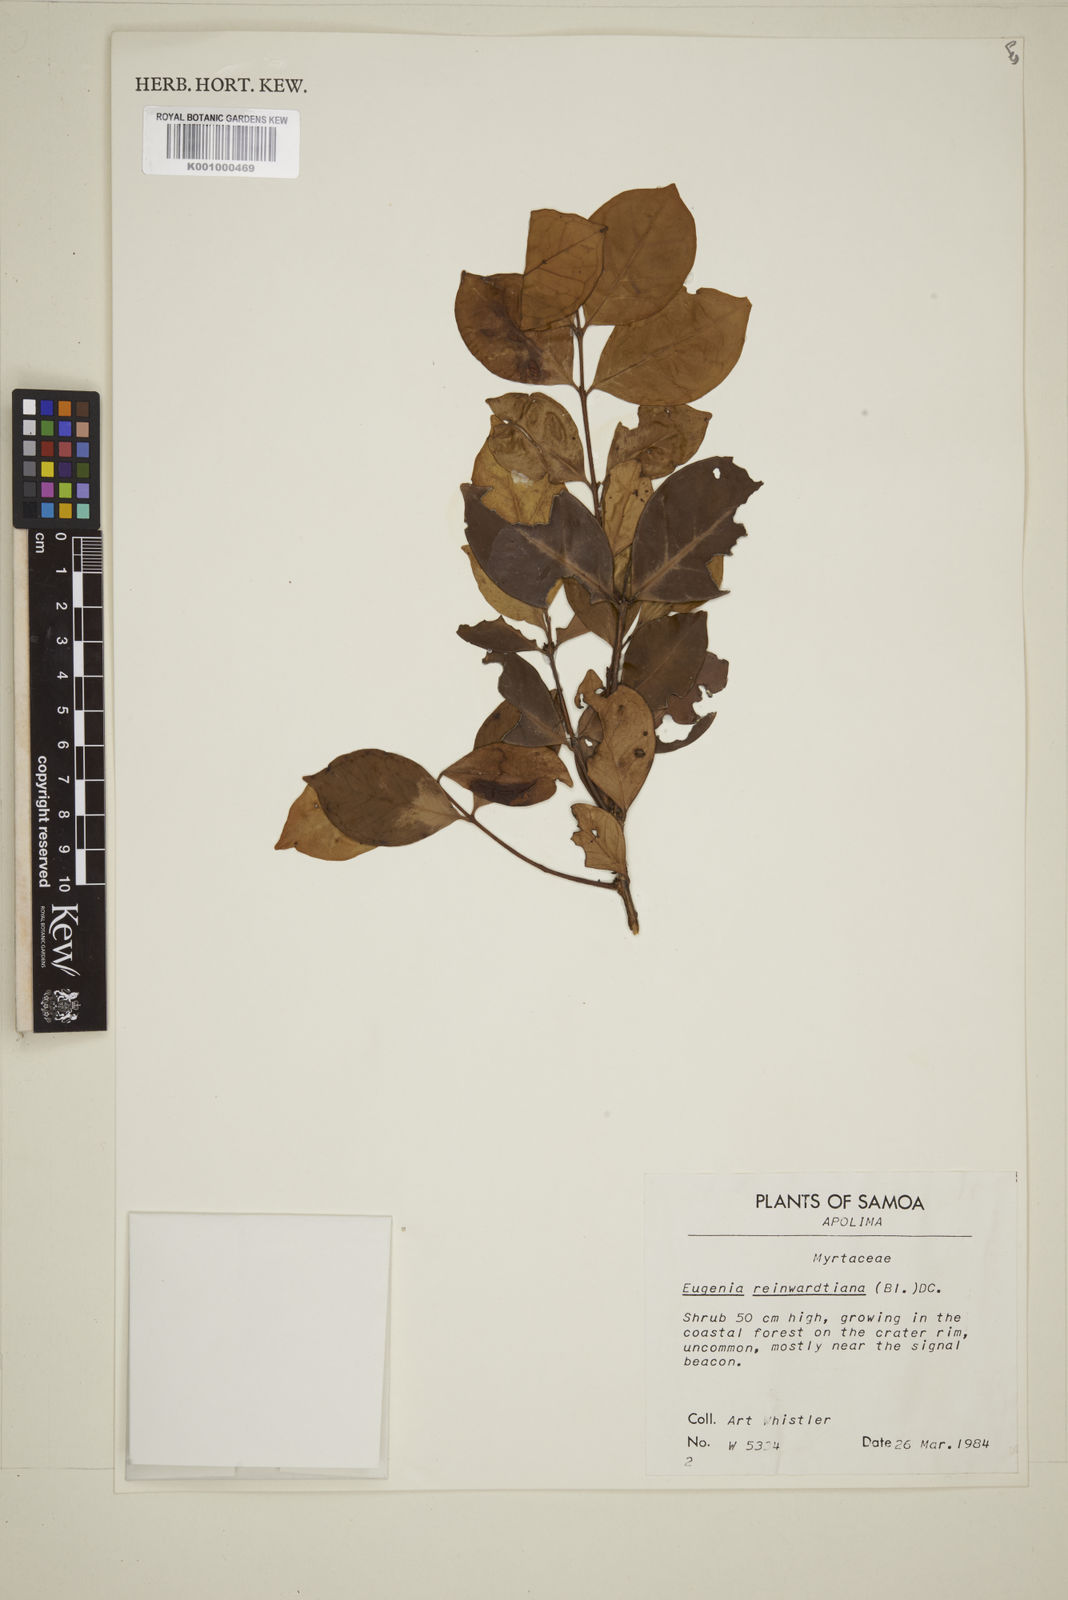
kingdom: Plantae
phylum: Tracheophyta
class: Magnoliopsida
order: Myrtales
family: Myrtaceae
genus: Eugenia
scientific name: Eugenia reinwardtiana
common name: Cedar bay-cherry
